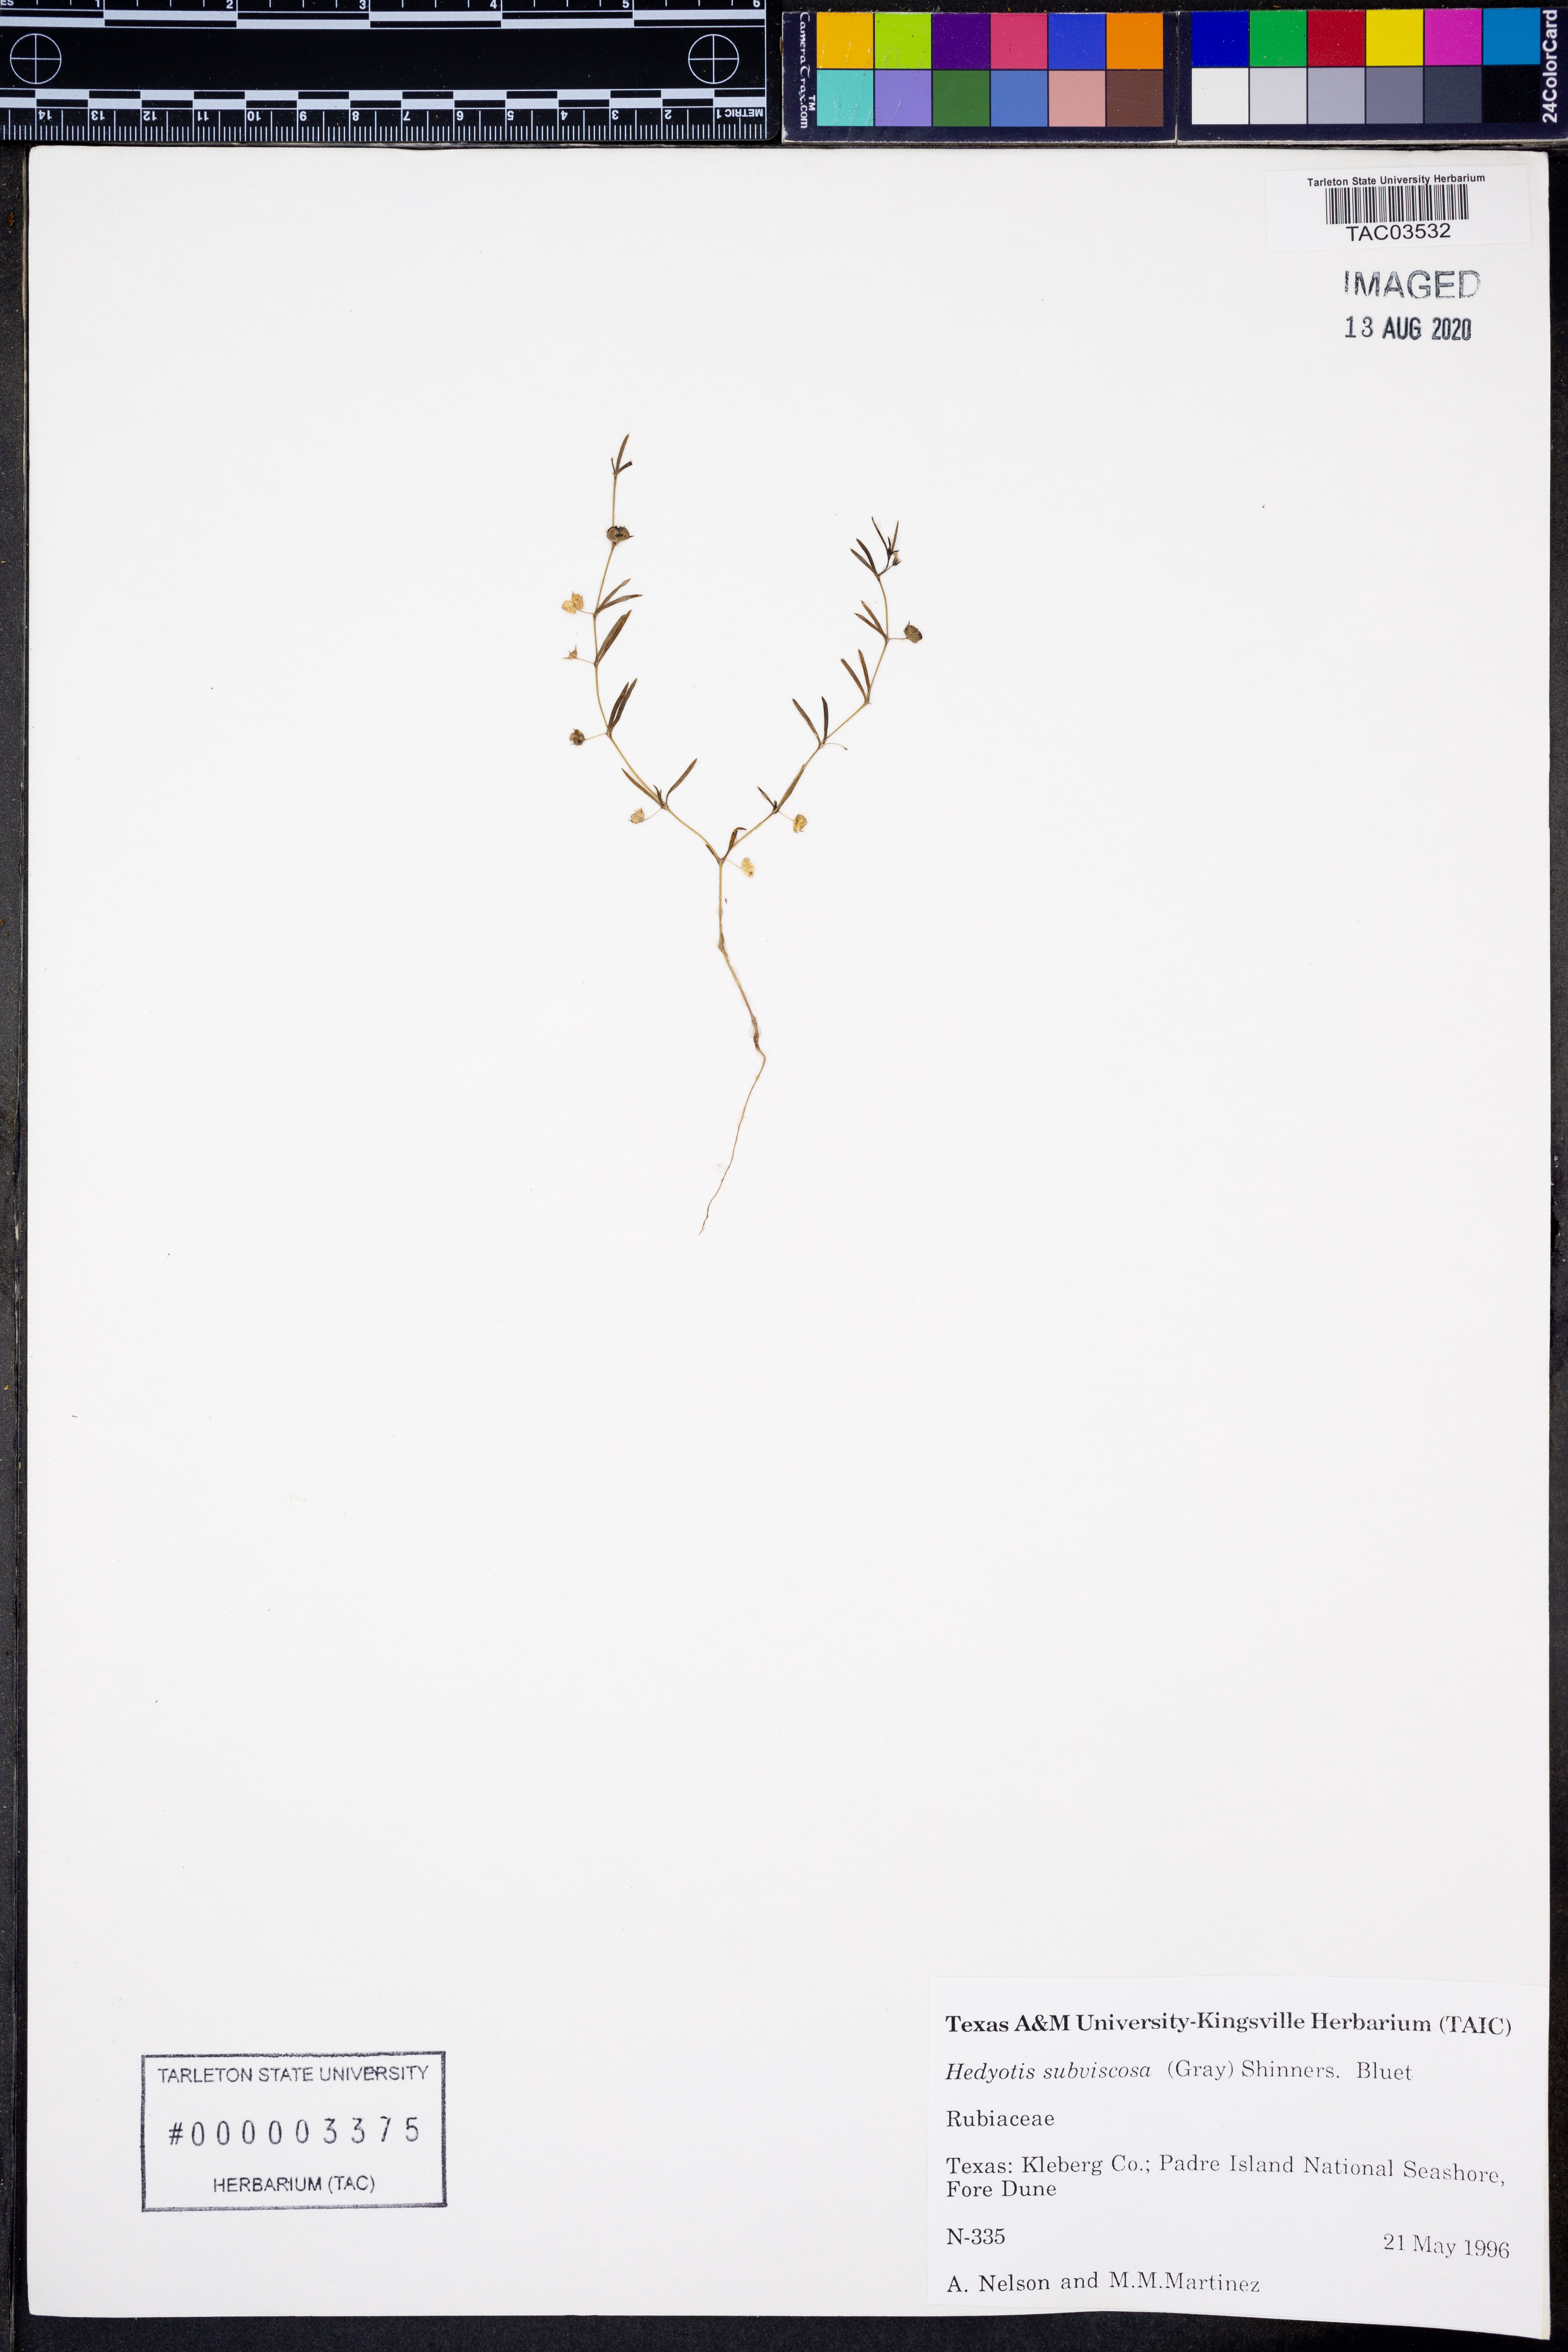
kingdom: Plantae
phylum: Tracheophyta
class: Magnoliopsida
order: Gentianales
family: Rubiaceae
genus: Houstonia
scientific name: Houstonia subviscosa
